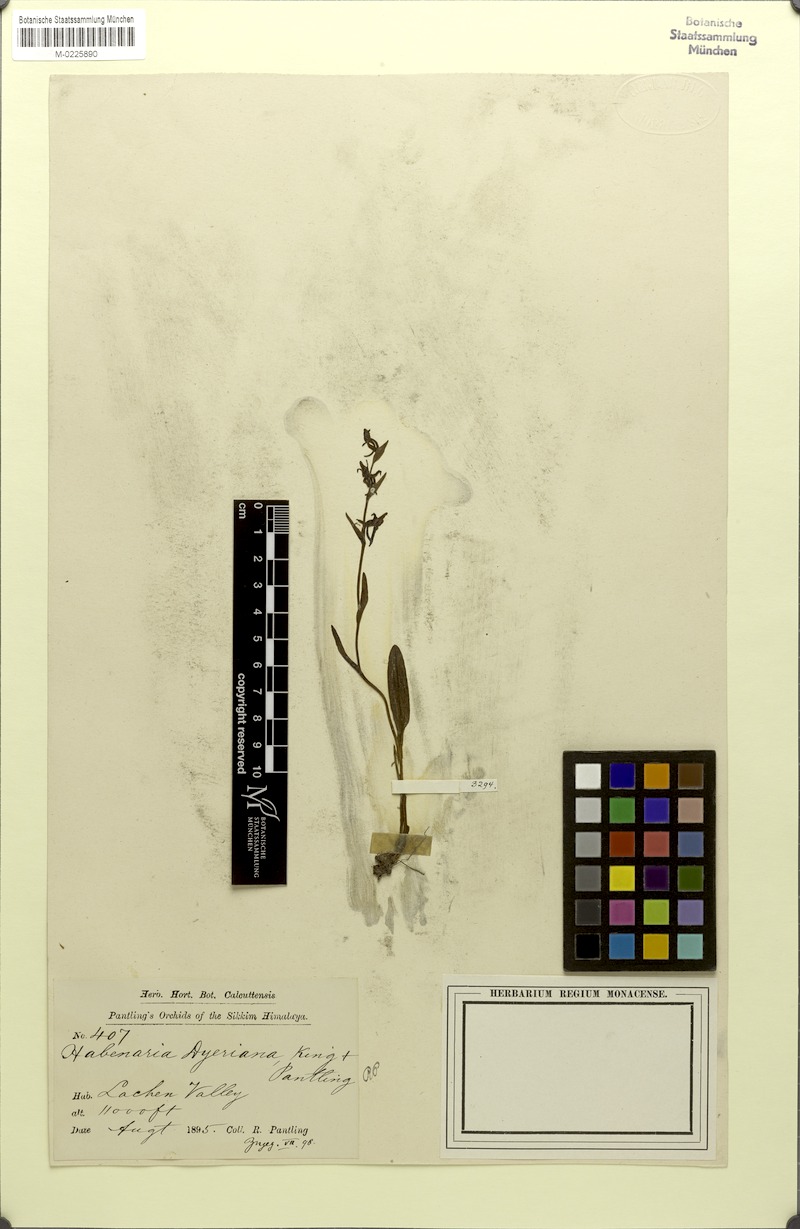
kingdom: Plantae
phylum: Tracheophyta
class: Liliopsida
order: Asparagales
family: Orchidaceae
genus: Platanthera
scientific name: Platanthera concinna
